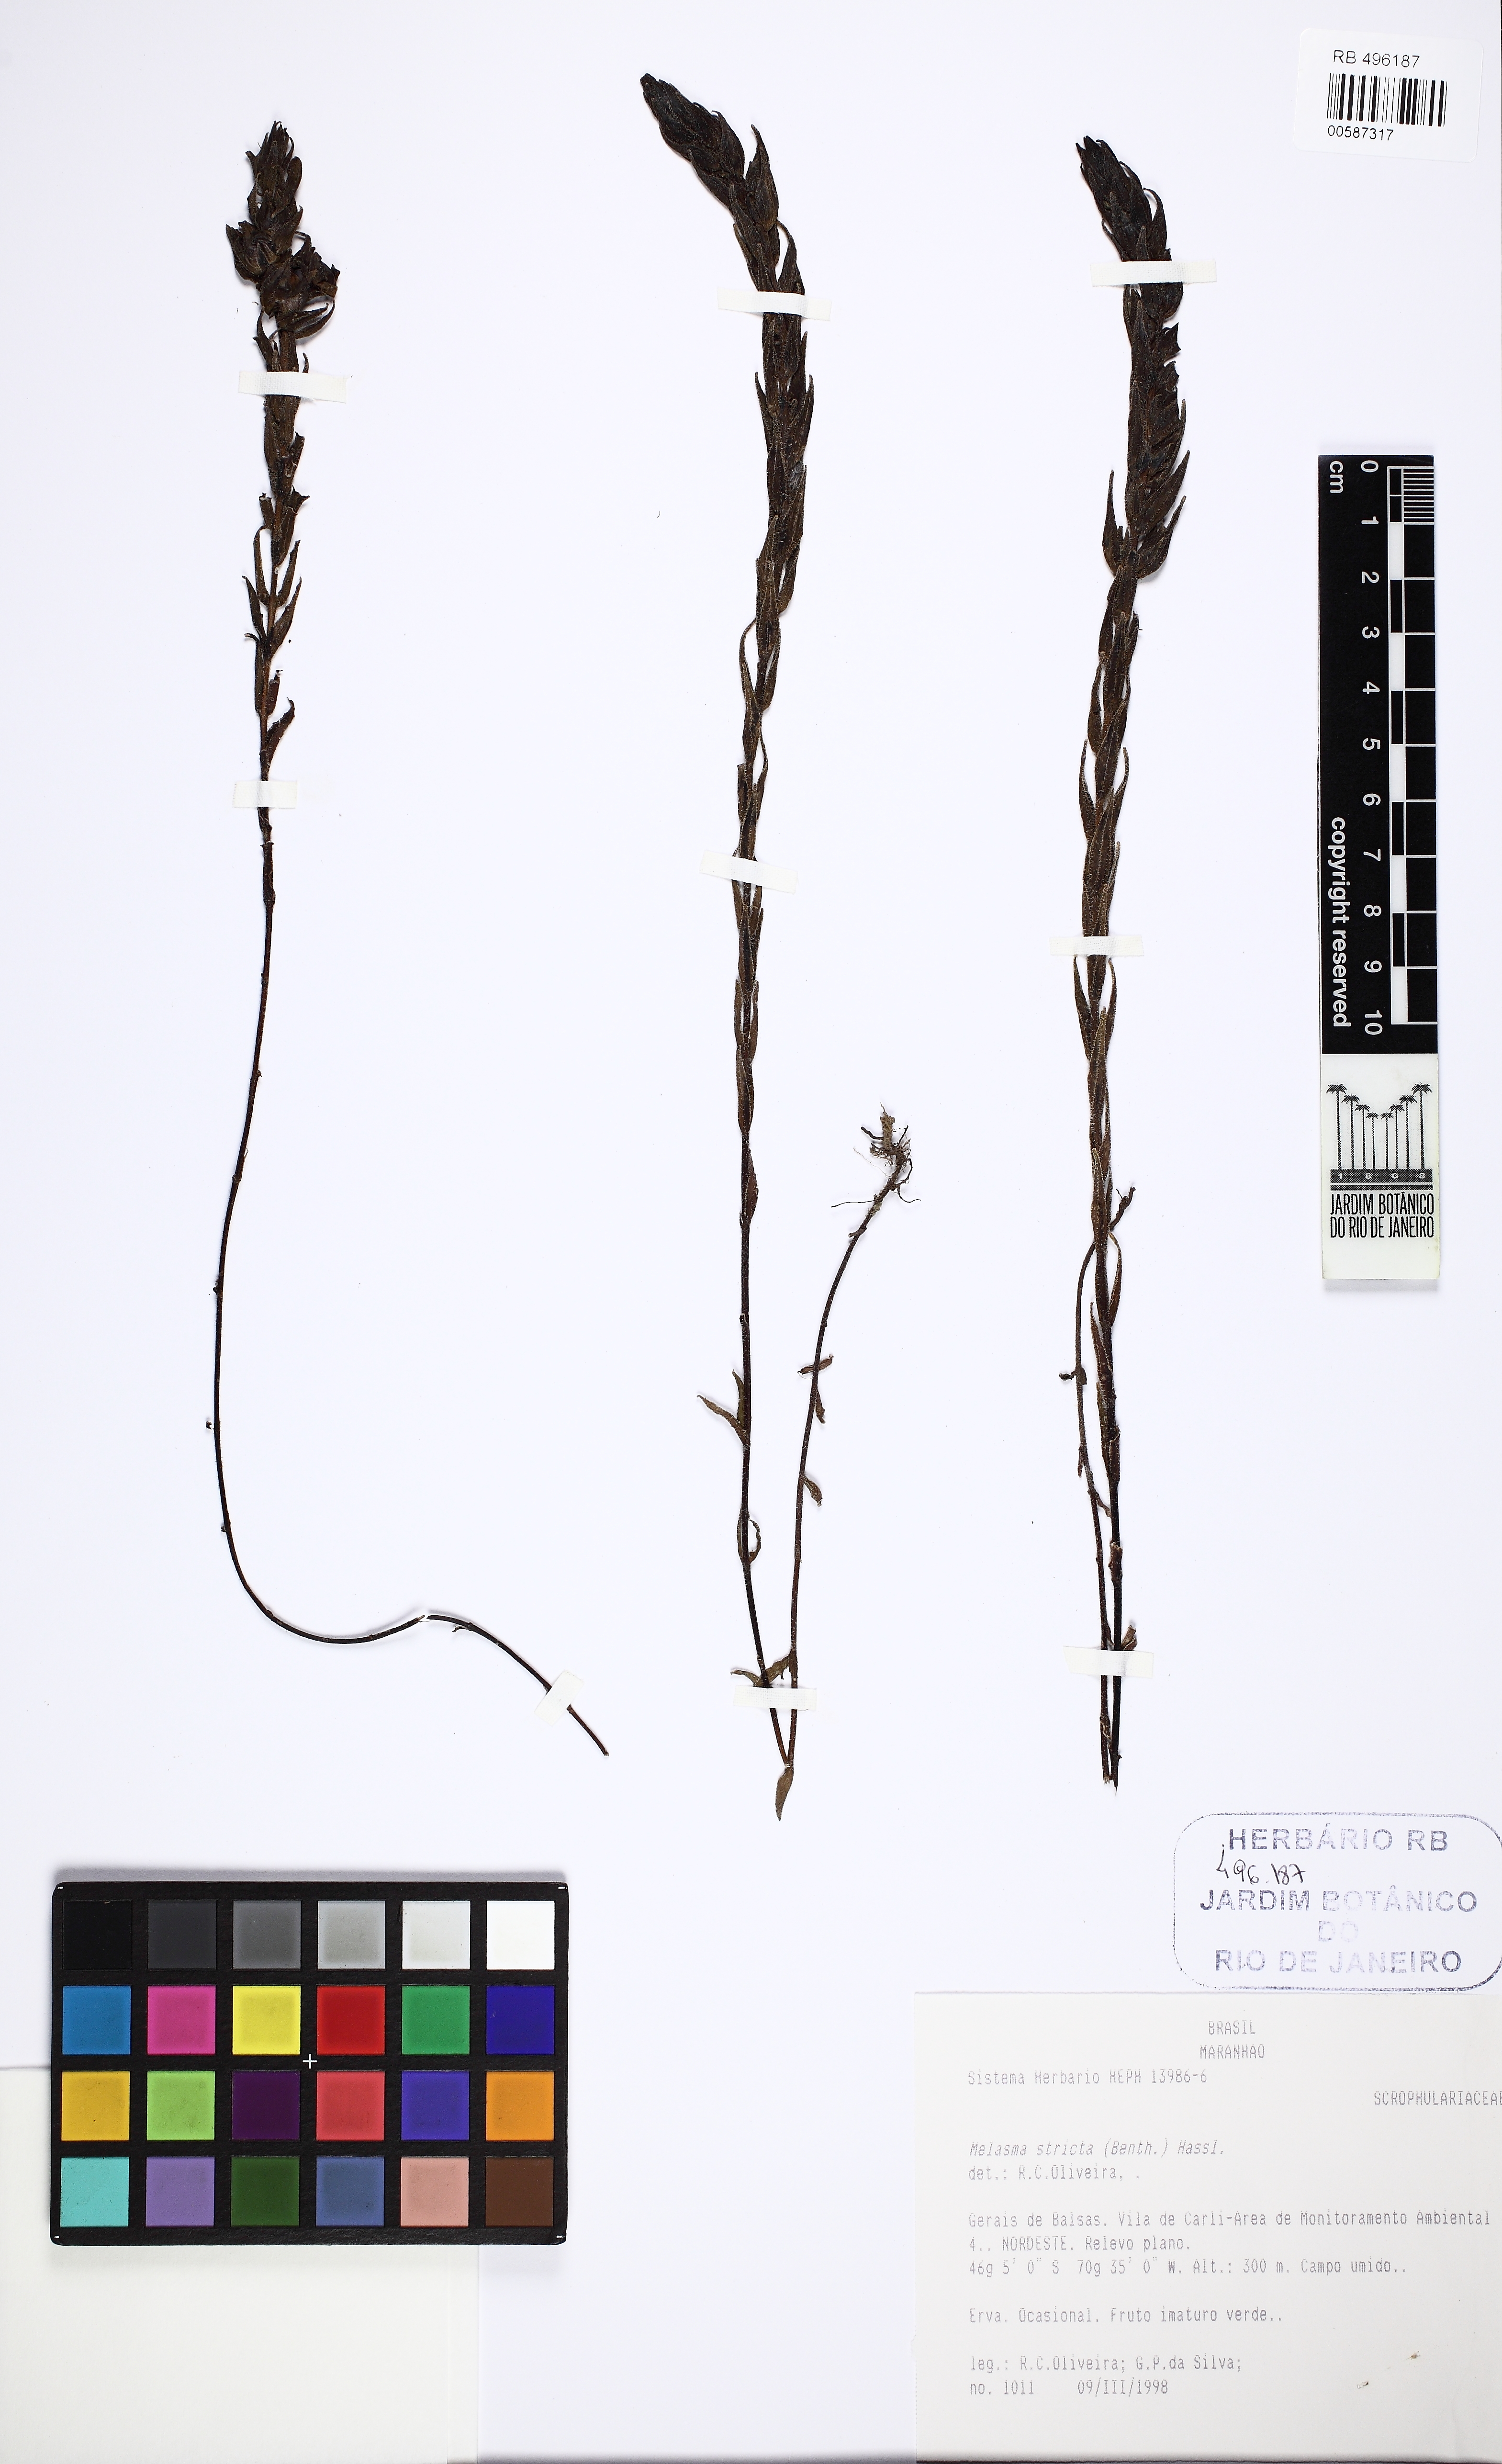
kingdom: Plantae
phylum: Tracheophyta
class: Magnoliopsida
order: Lamiales
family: Orobanchaceae
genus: Melasma
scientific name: Melasma strictum
